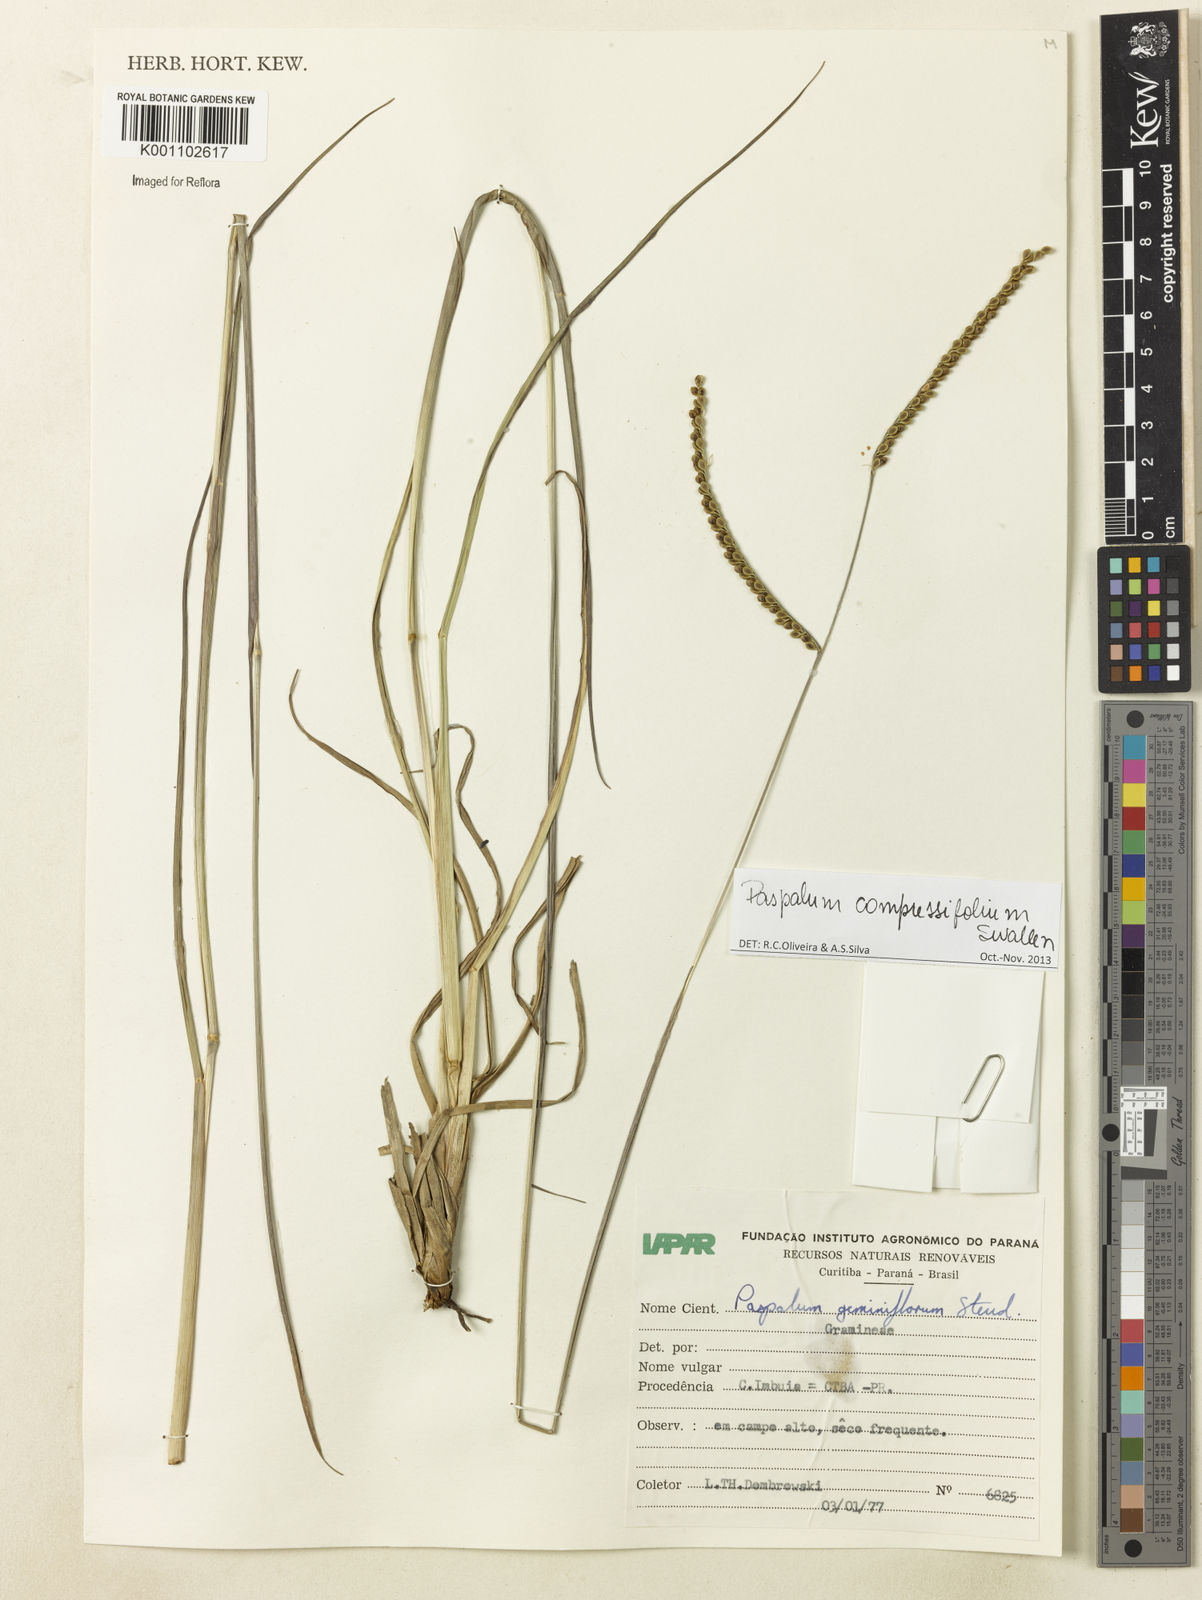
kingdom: Plantae
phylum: Tracheophyta
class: Liliopsida
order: Poales
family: Poaceae
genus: Paspalum
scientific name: Paspalum
